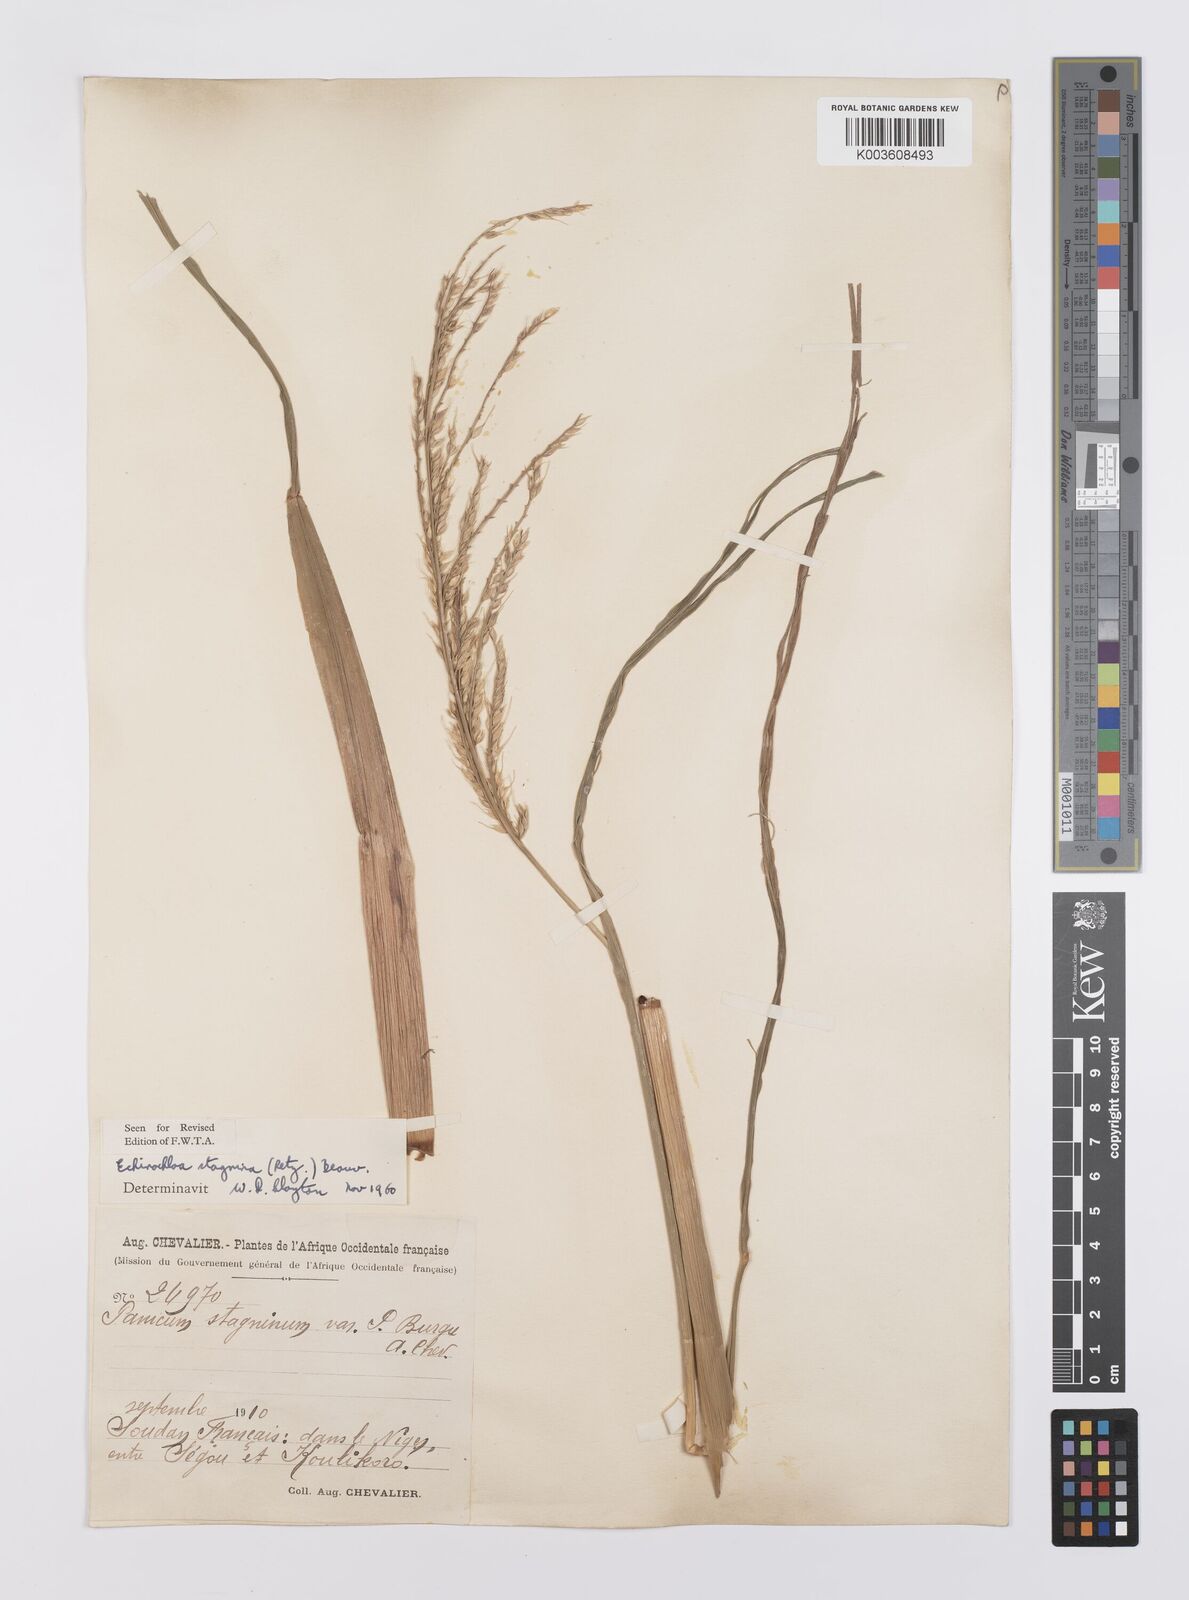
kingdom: Plantae
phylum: Tracheophyta
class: Liliopsida
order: Poales
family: Poaceae
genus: Echinochloa
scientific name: Echinochloa stagnina
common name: Burgu grass
